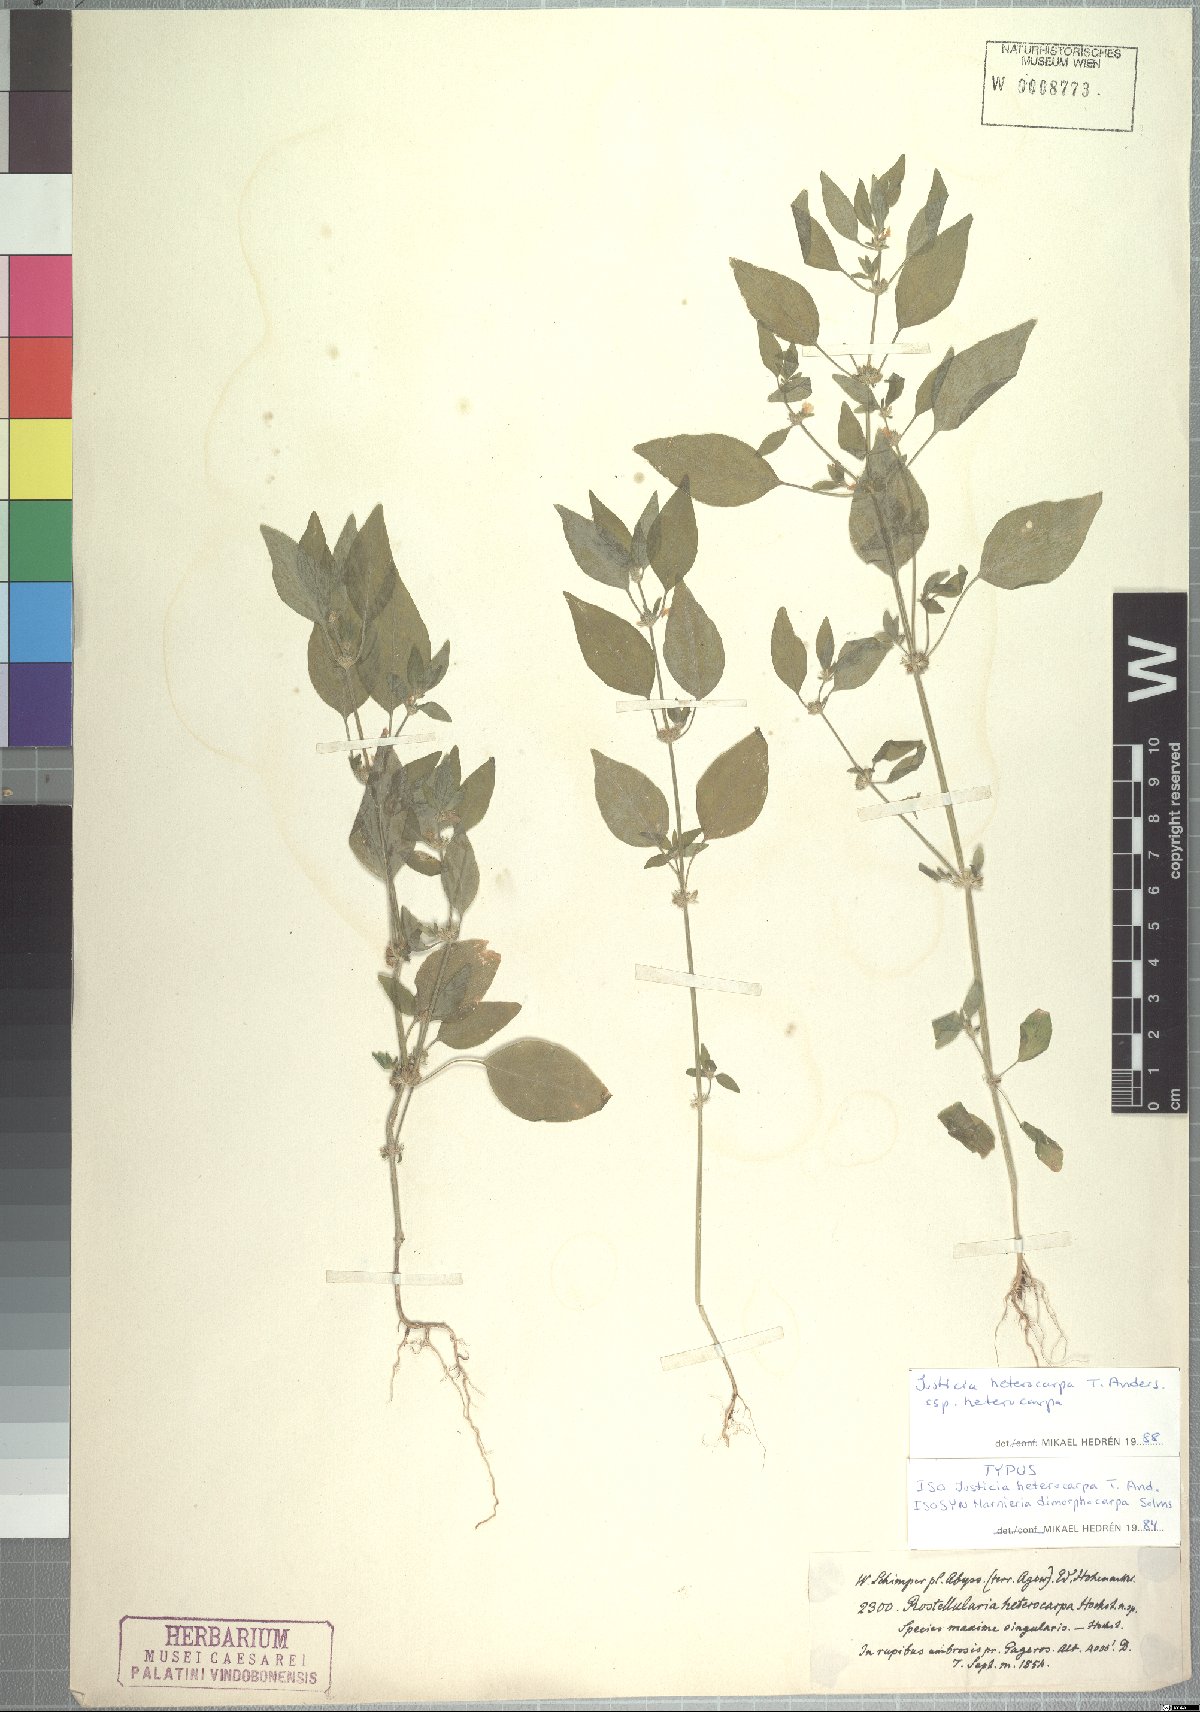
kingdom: Plantae
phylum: Tracheophyta
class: Magnoliopsida
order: Lamiales
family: Acanthaceae
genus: Justicia
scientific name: Justicia heterocarpa
